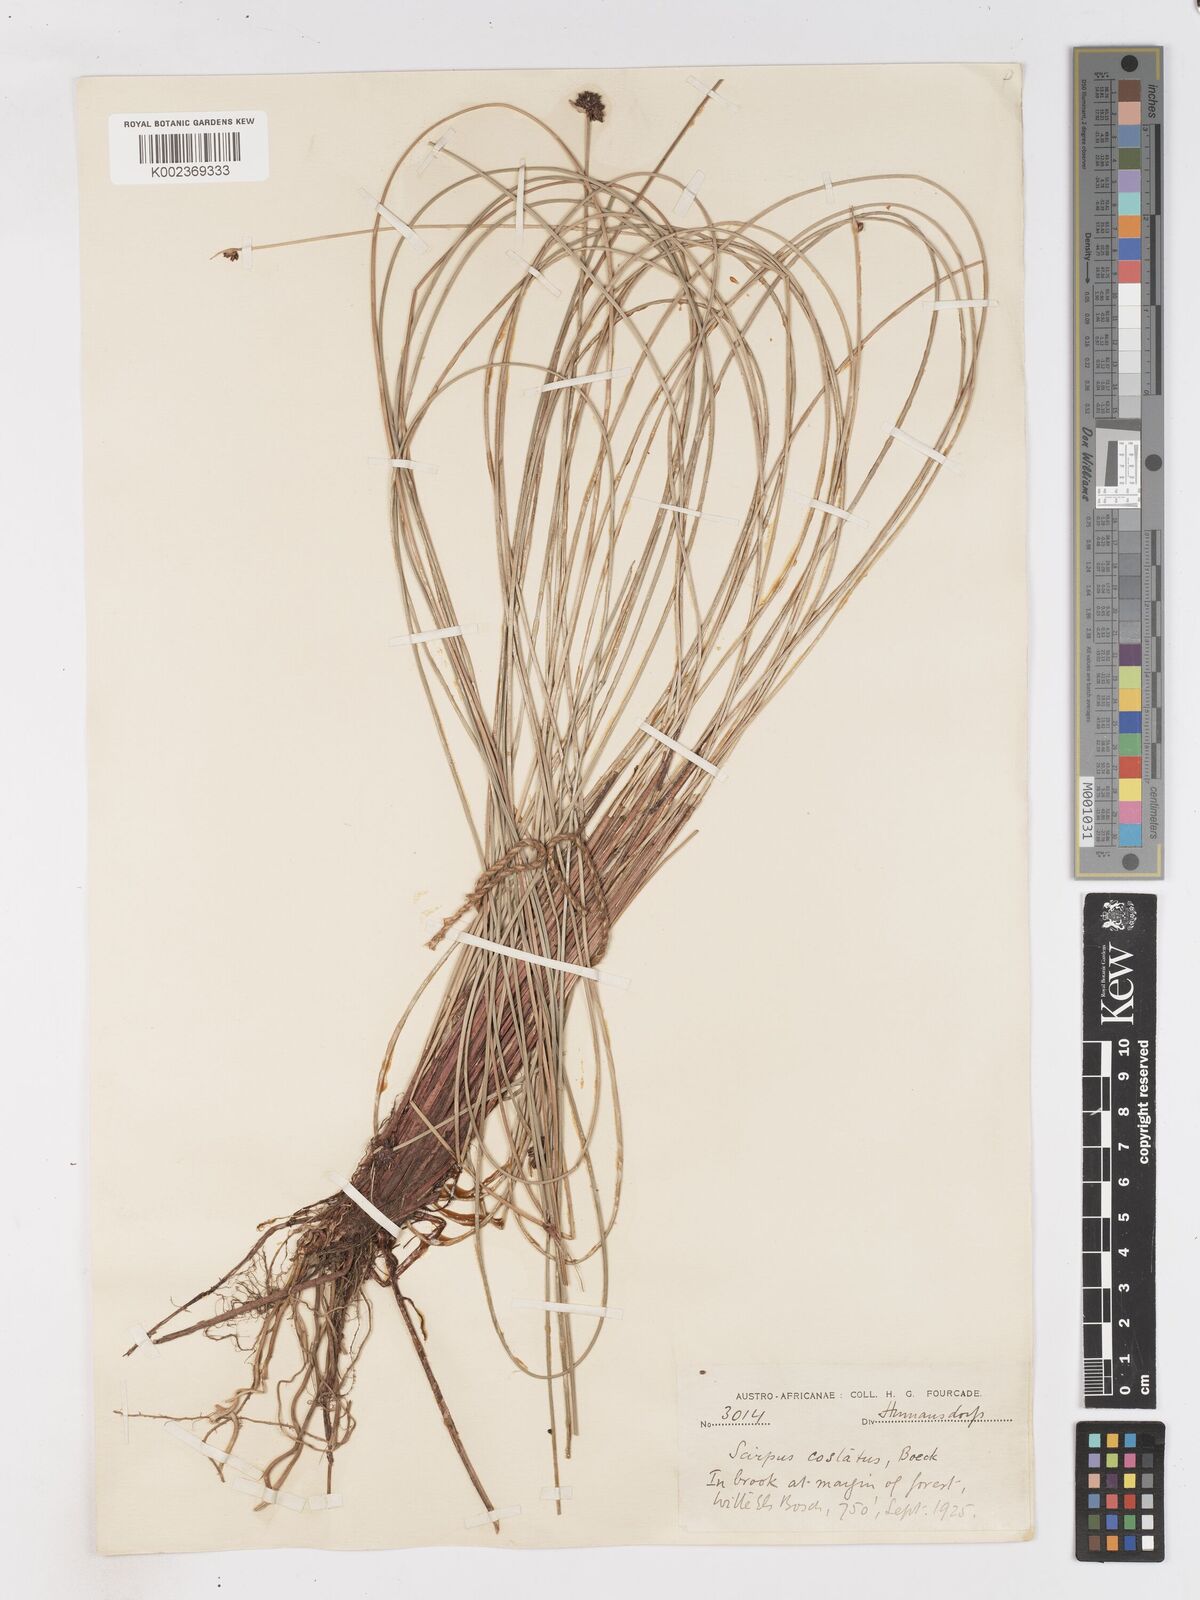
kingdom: Plantae
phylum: Tracheophyta
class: Liliopsida
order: Poales
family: Cyperaceae
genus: Isolepis
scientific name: Isolepis costata
